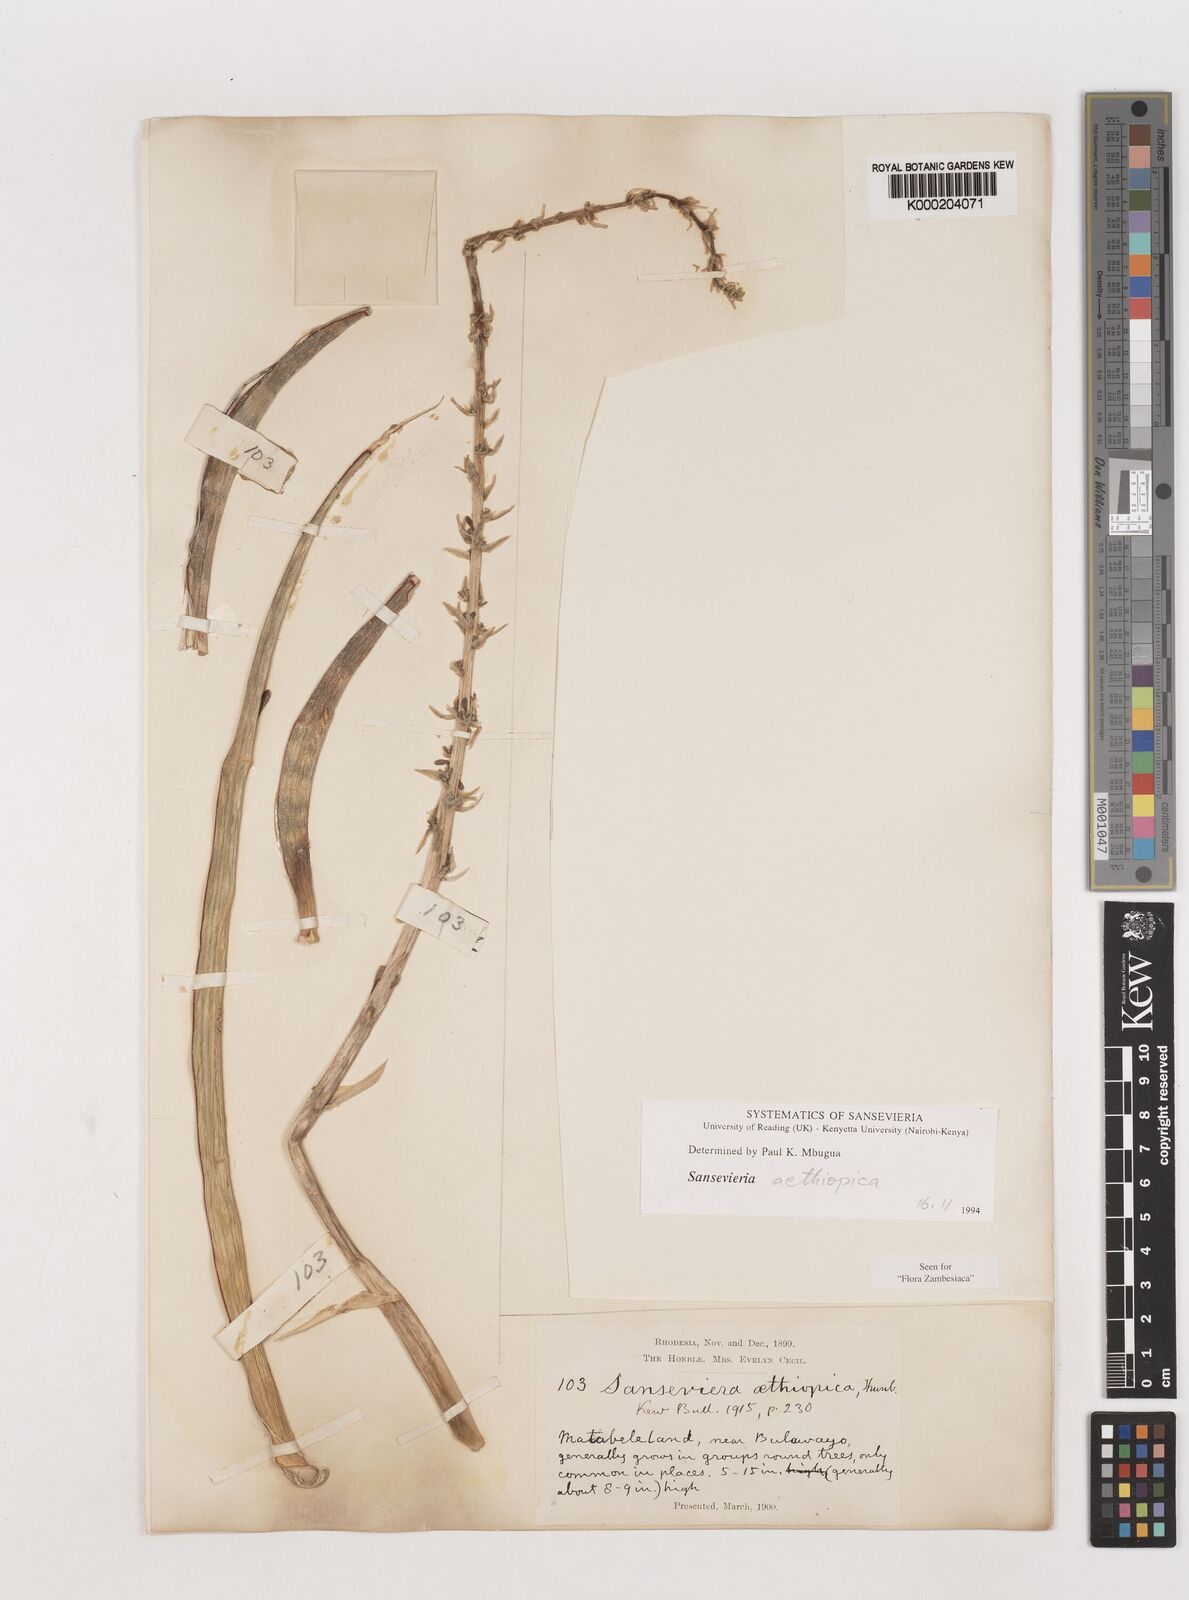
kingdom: Plantae
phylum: Tracheophyta
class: Liliopsida
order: Asparagales
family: Asparagaceae
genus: Dracaena
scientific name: Dracaena aethiopica
